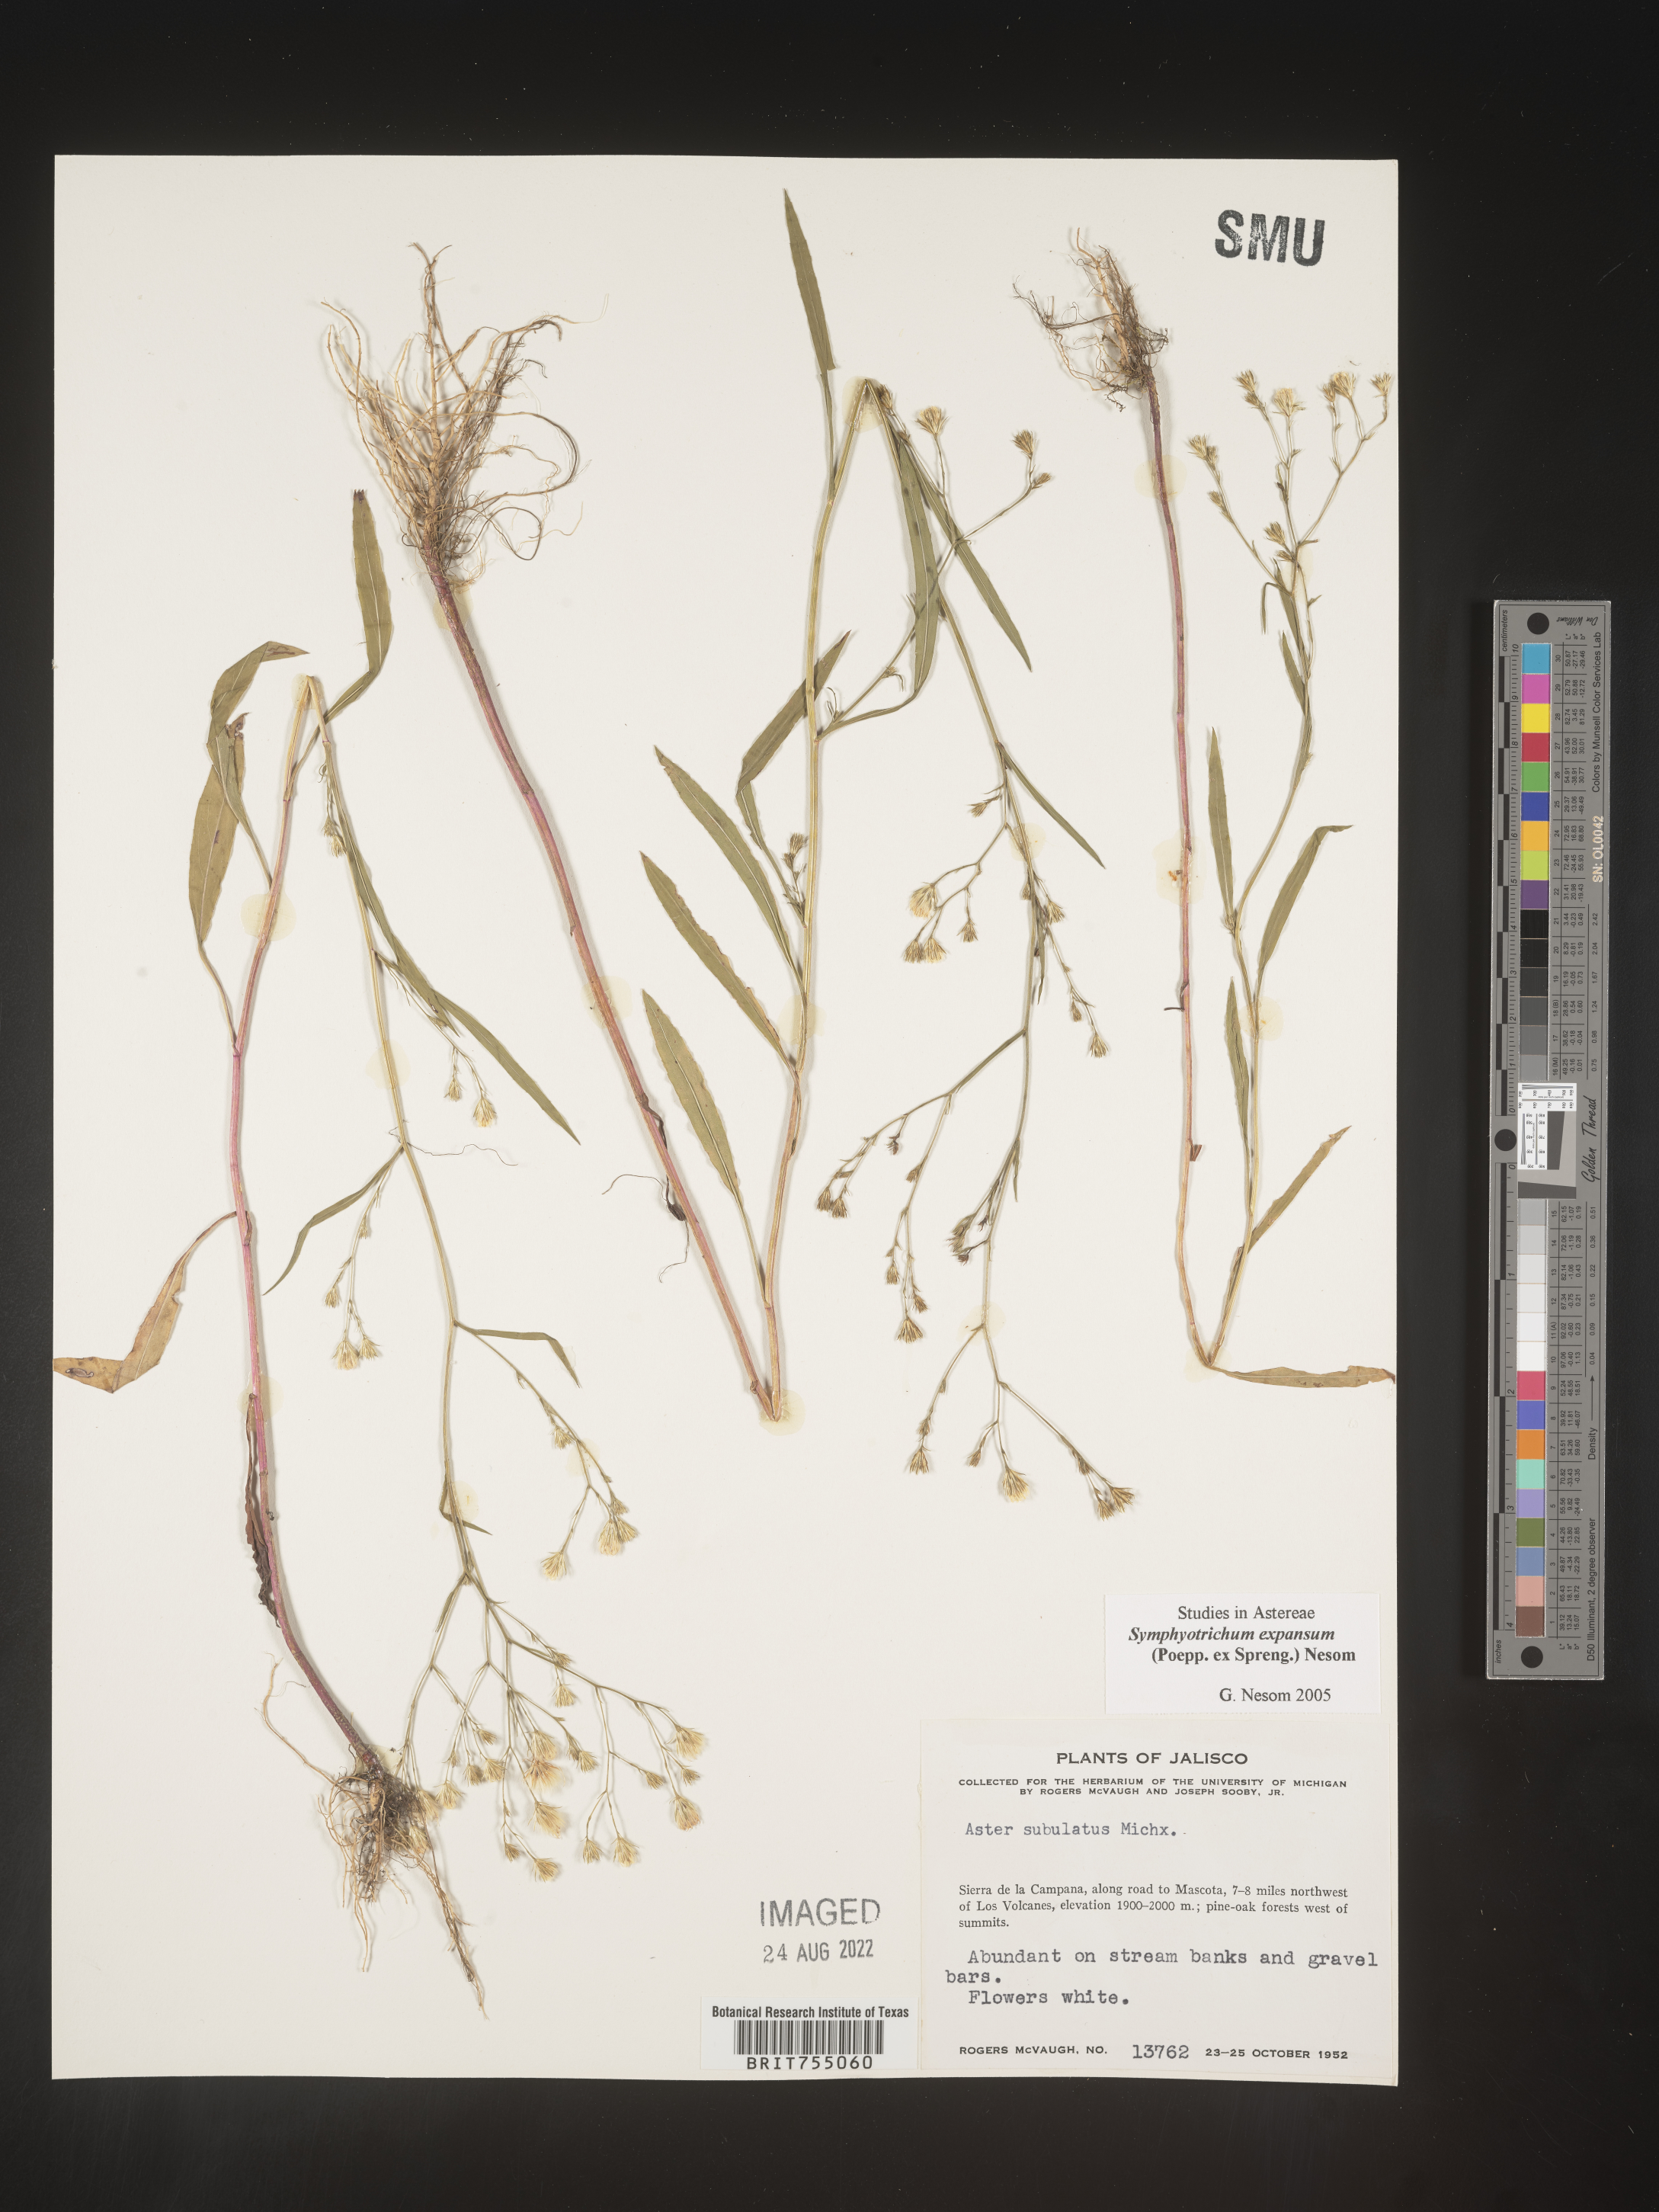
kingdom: Plantae
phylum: Tracheophyta
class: Magnoliopsida
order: Asterales
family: Asteraceae
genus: Symphyotrichum
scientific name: Symphyotrichum expansum
